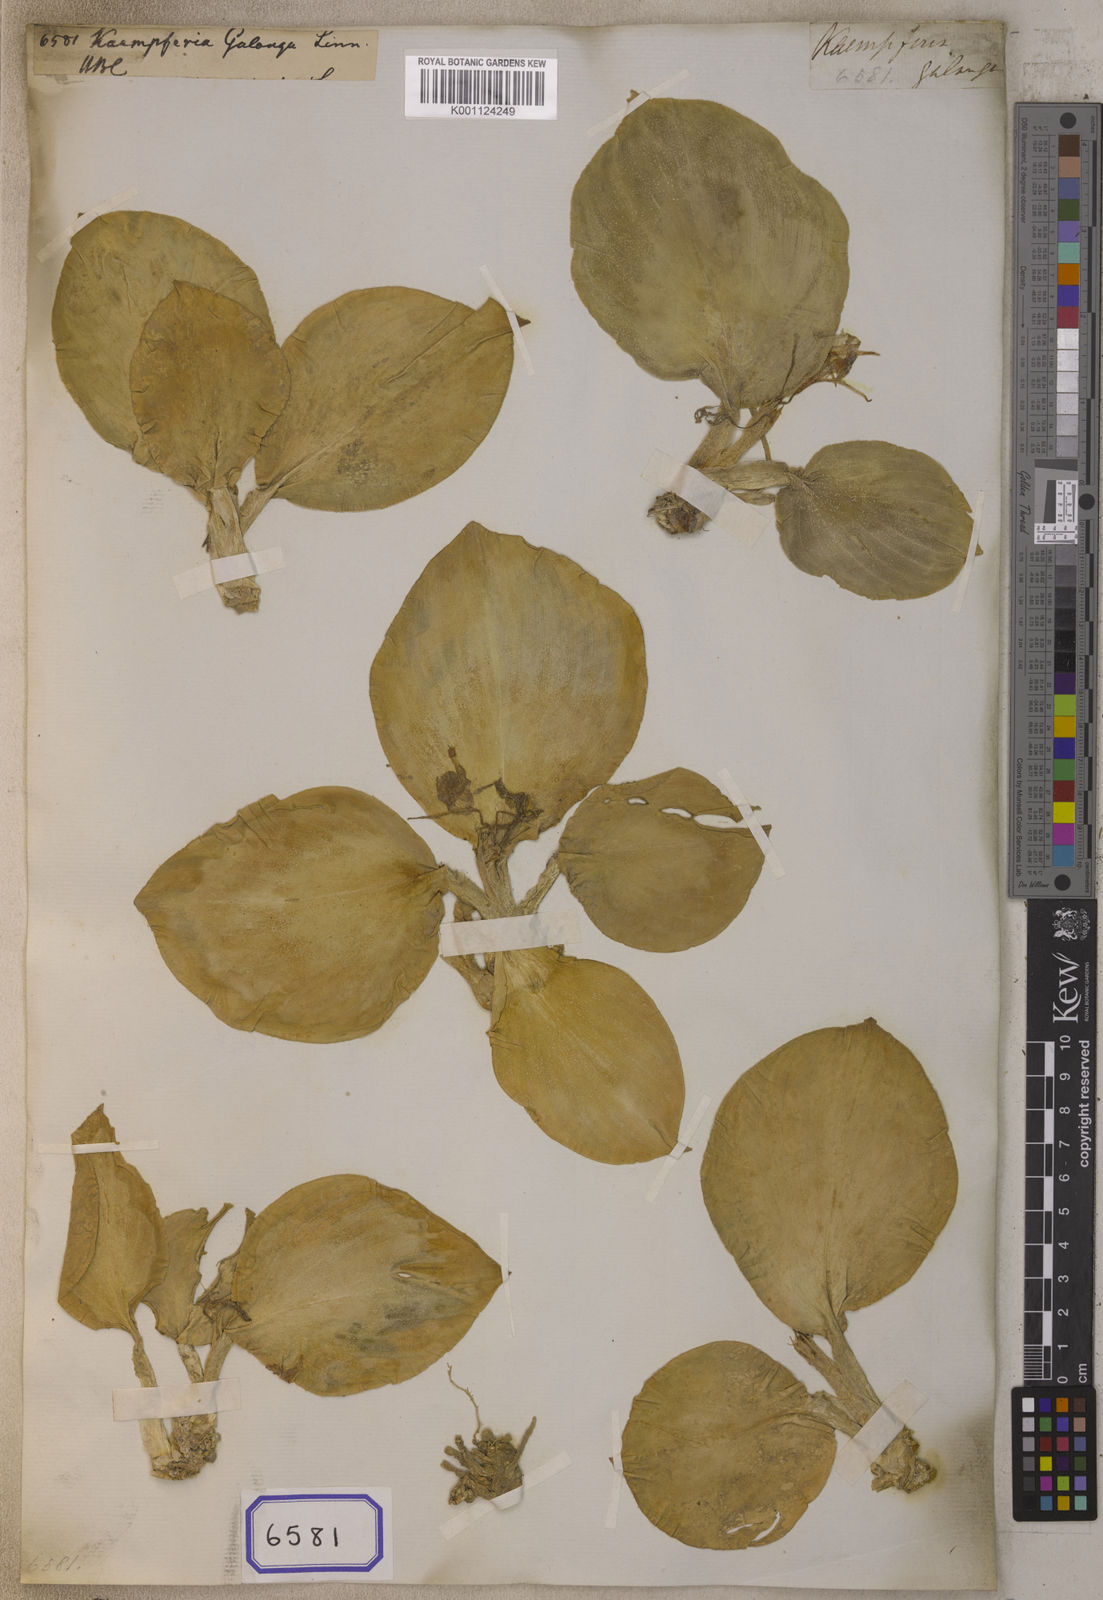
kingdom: Plantae
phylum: Tracheophyta
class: Liliopsida
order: Zingiberales
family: Zingiberaceae
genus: Kaempferia
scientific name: Kaempferia galanga
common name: Aromatic ginger
